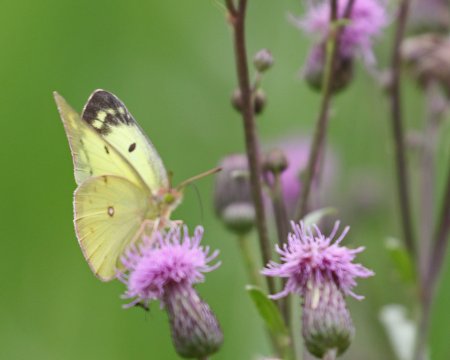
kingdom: Animalia
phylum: Arthropoda
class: Insecta
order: Lepidoptera
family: Pieridae
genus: Colias
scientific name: Colias philodice
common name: Clouded Sulphur
